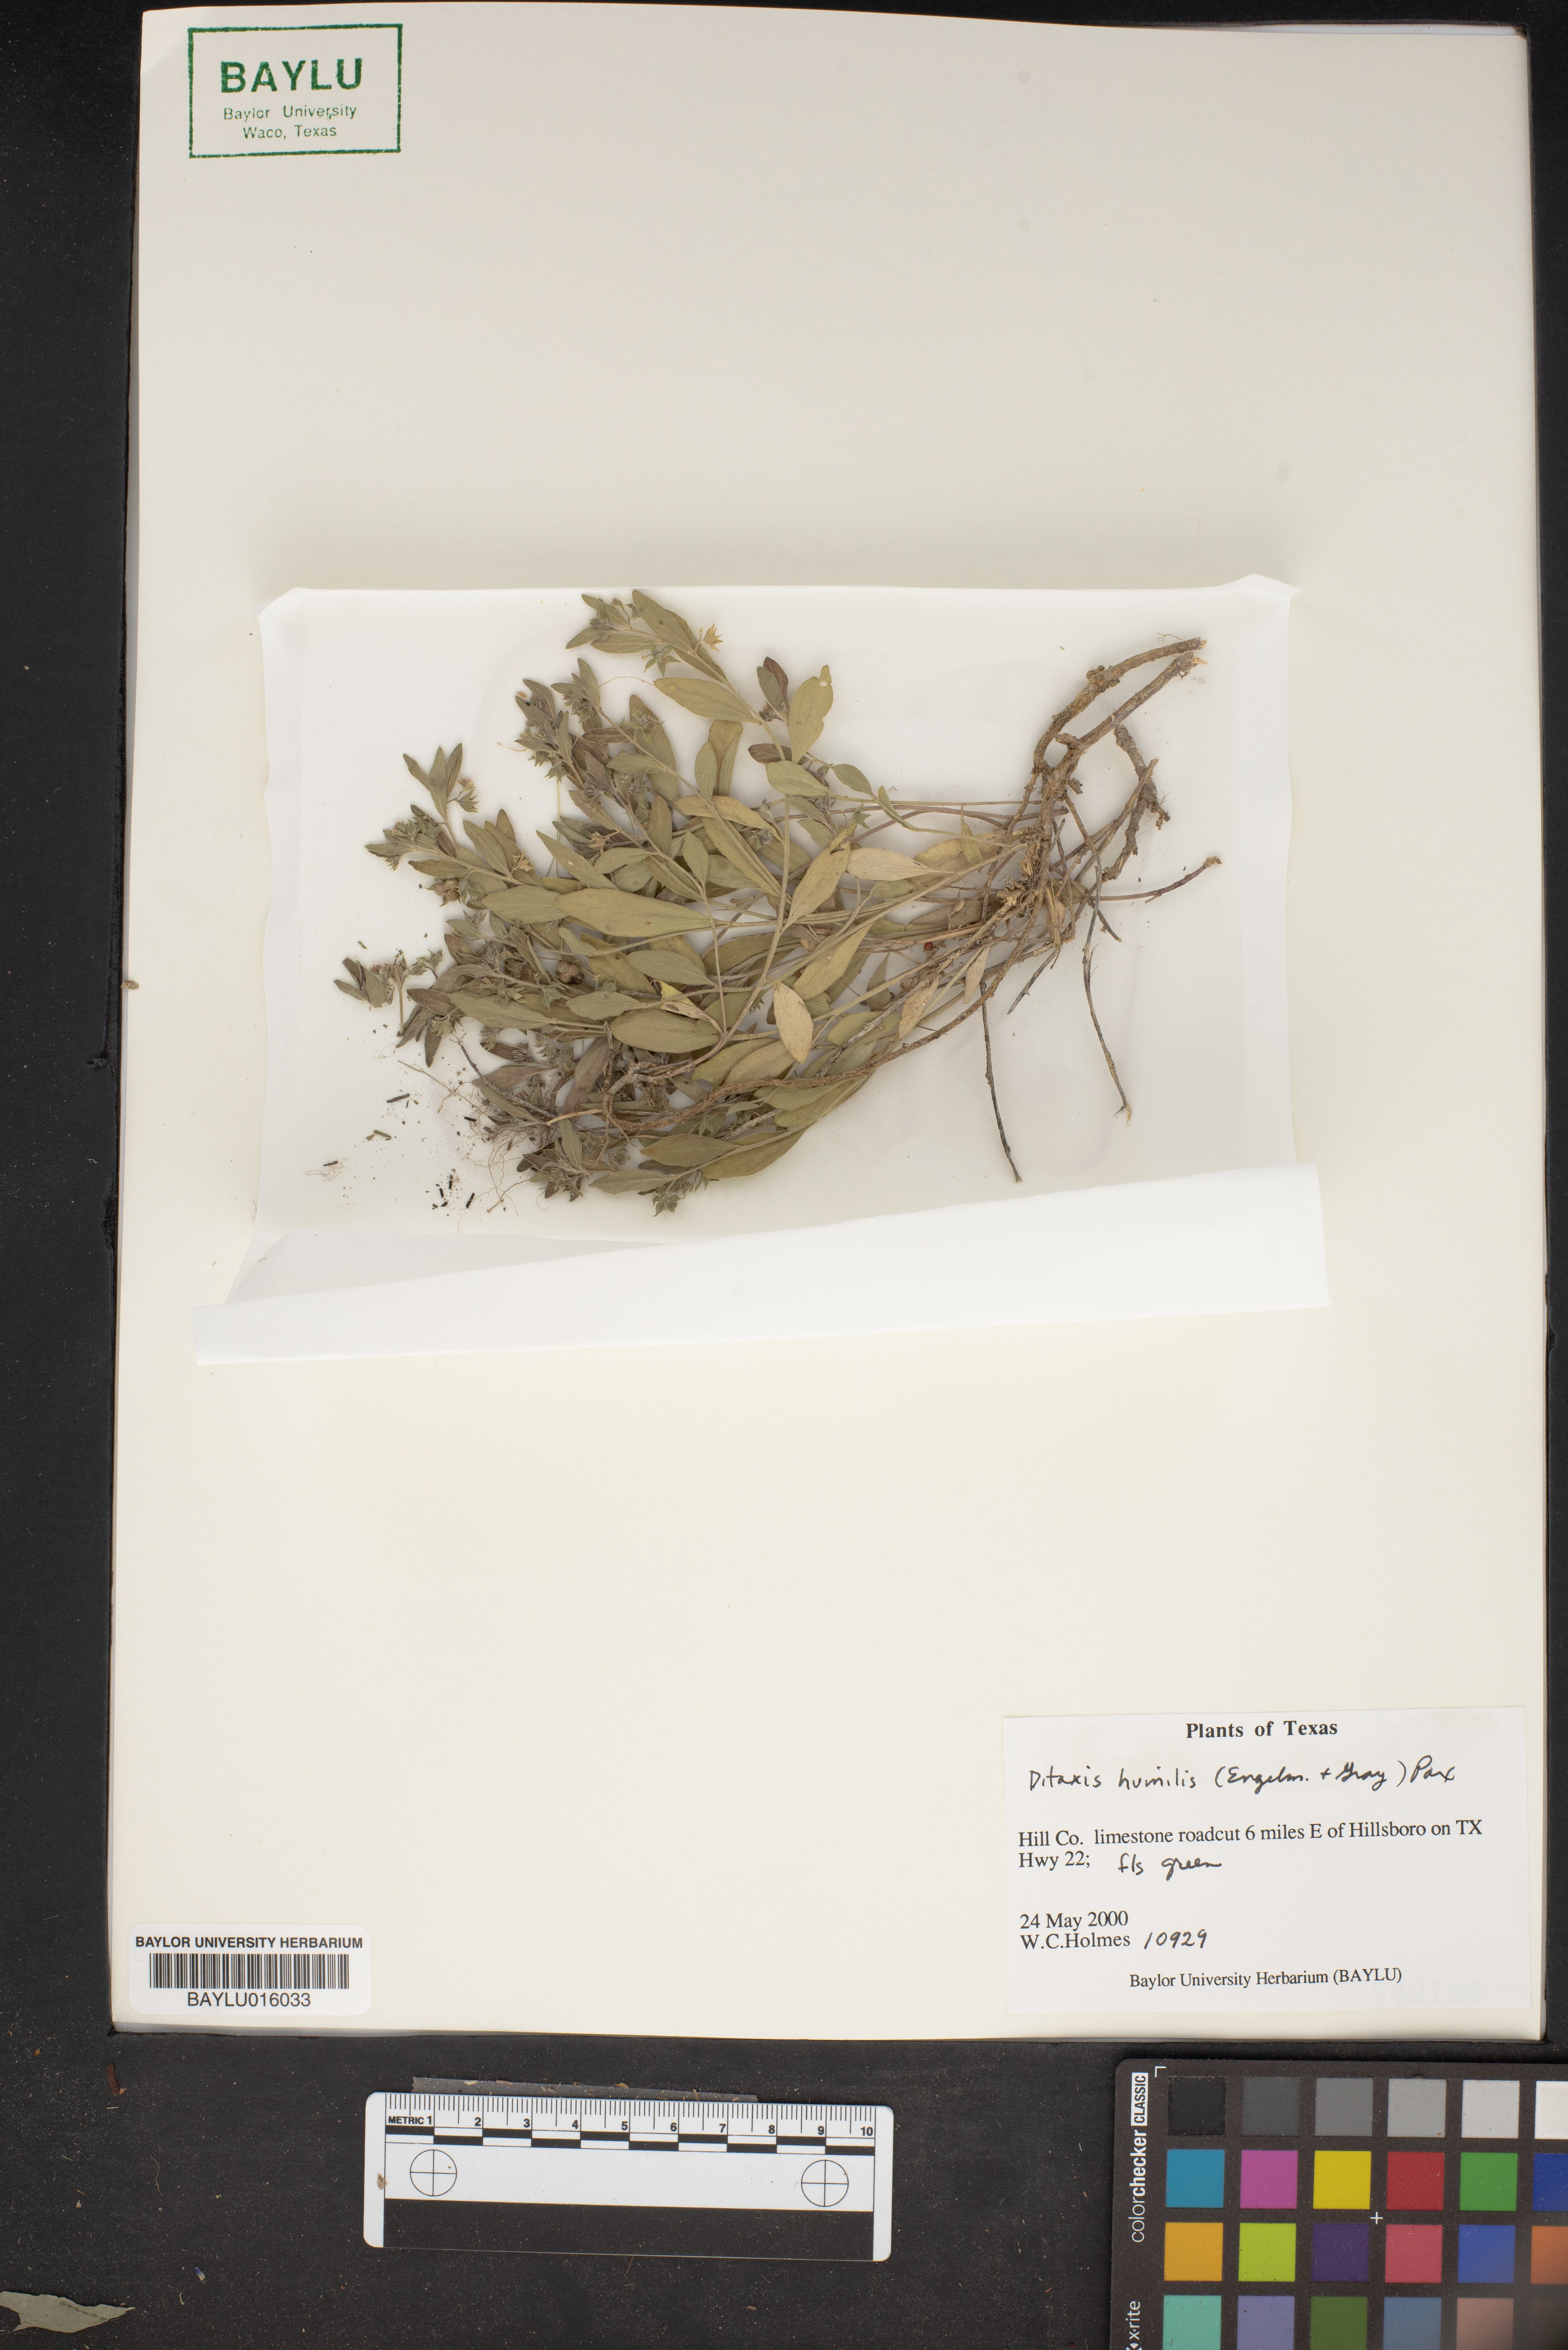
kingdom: Plantae
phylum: Tracheophyta
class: Magnoliopsida
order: Malpighiales
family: Euphorbiaceae
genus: Ditaxis
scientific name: Ditaxis humilis
